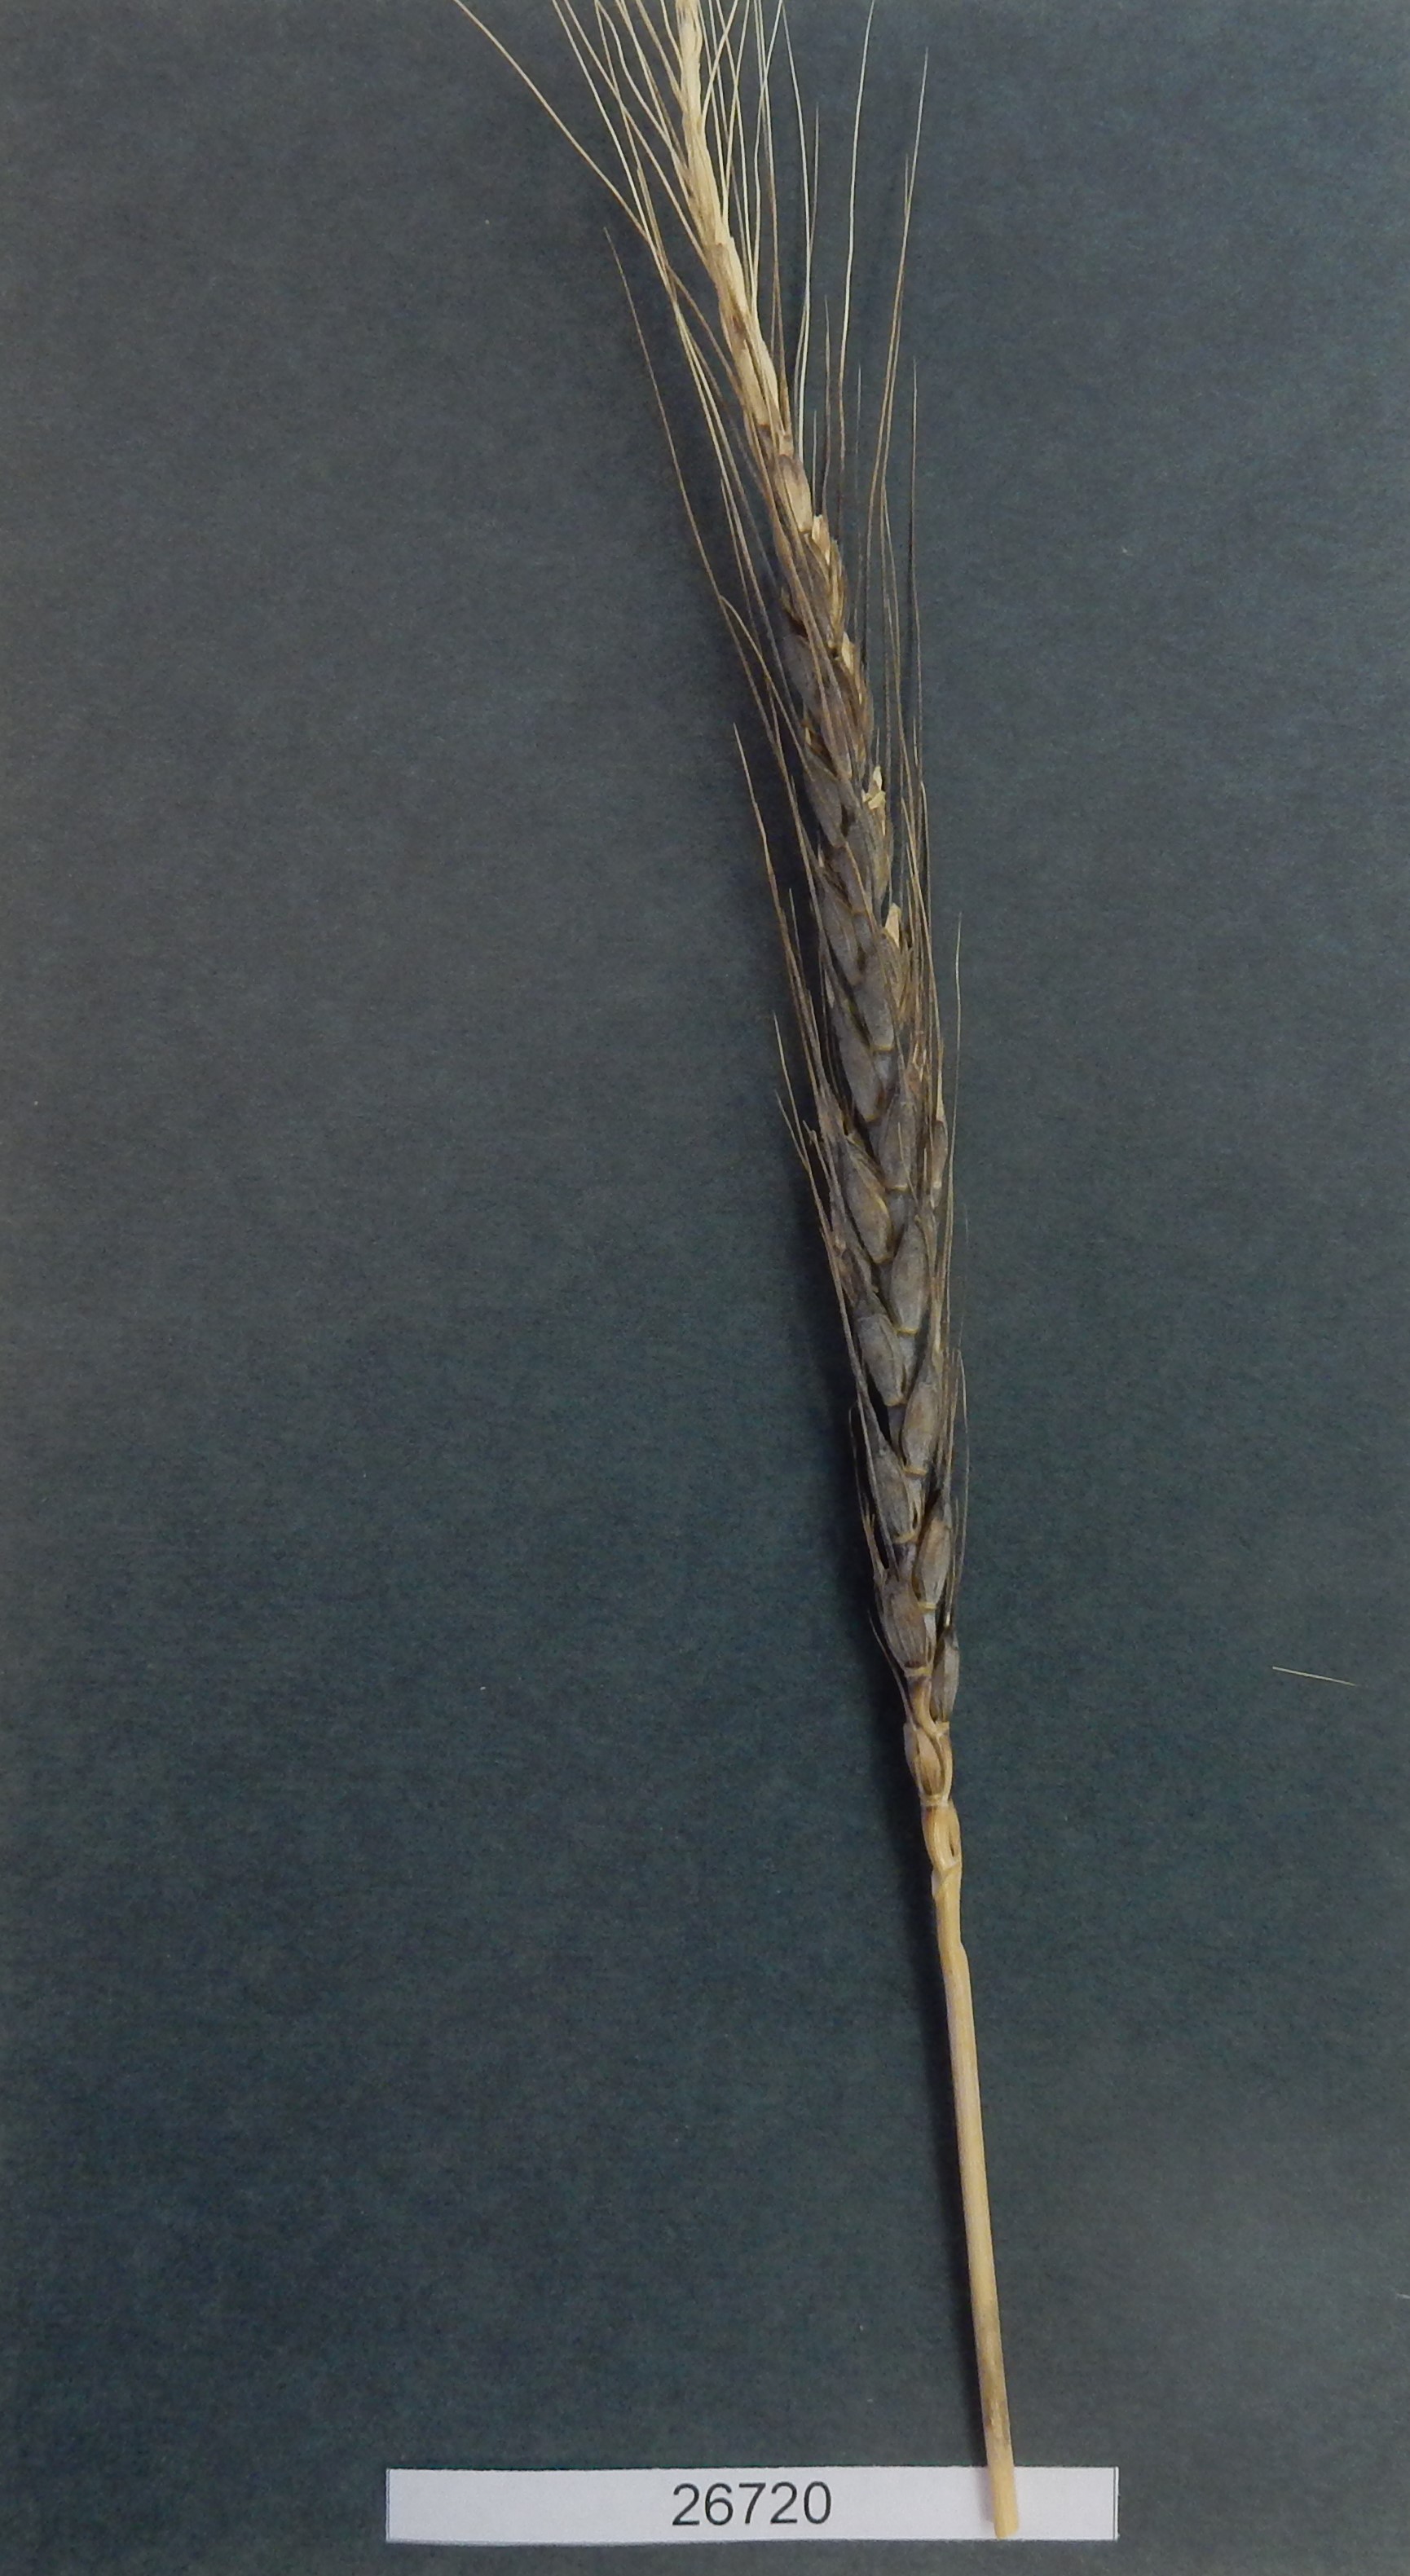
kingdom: Plantae
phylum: Tracheophyta
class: Liliopsida
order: Poales
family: Poaceae
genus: Triticum
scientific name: Triticum aestivum
